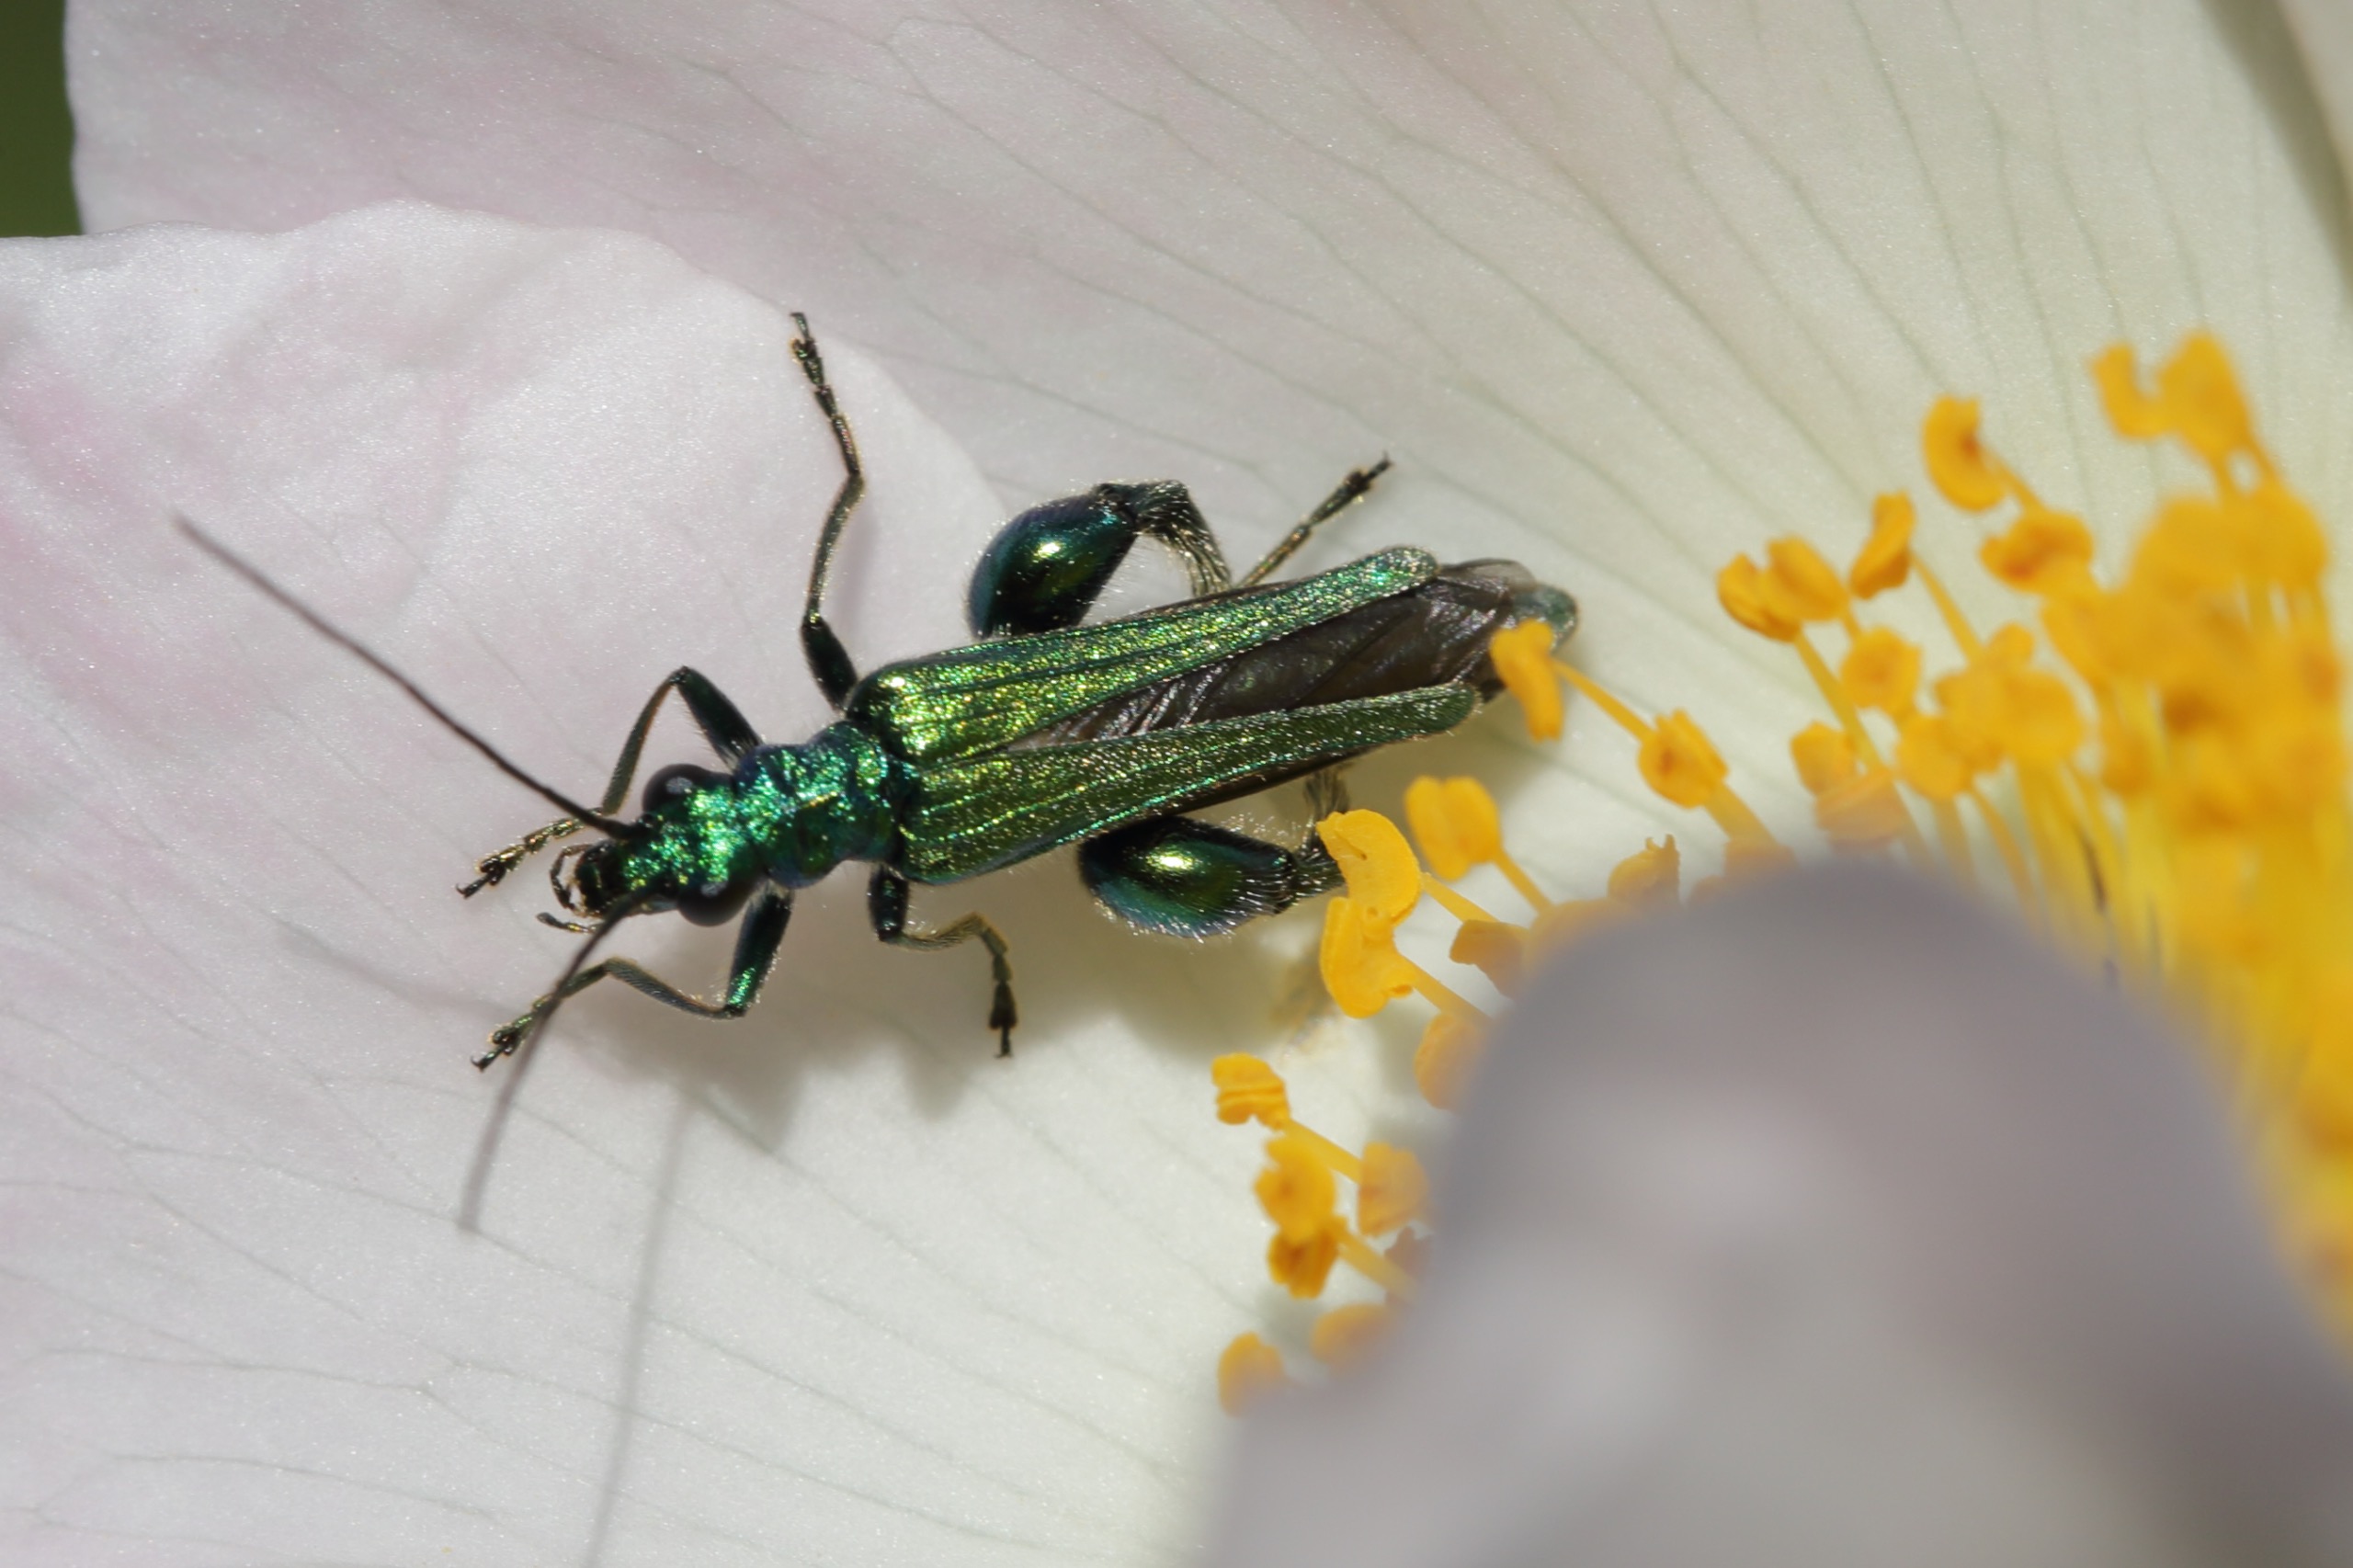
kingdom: Animalia
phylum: Arthropoda
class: Insecta
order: Coleoptera
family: Oedemeridae
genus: Oedemera
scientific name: Oedemera nobilis
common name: Tyklårssolbille
